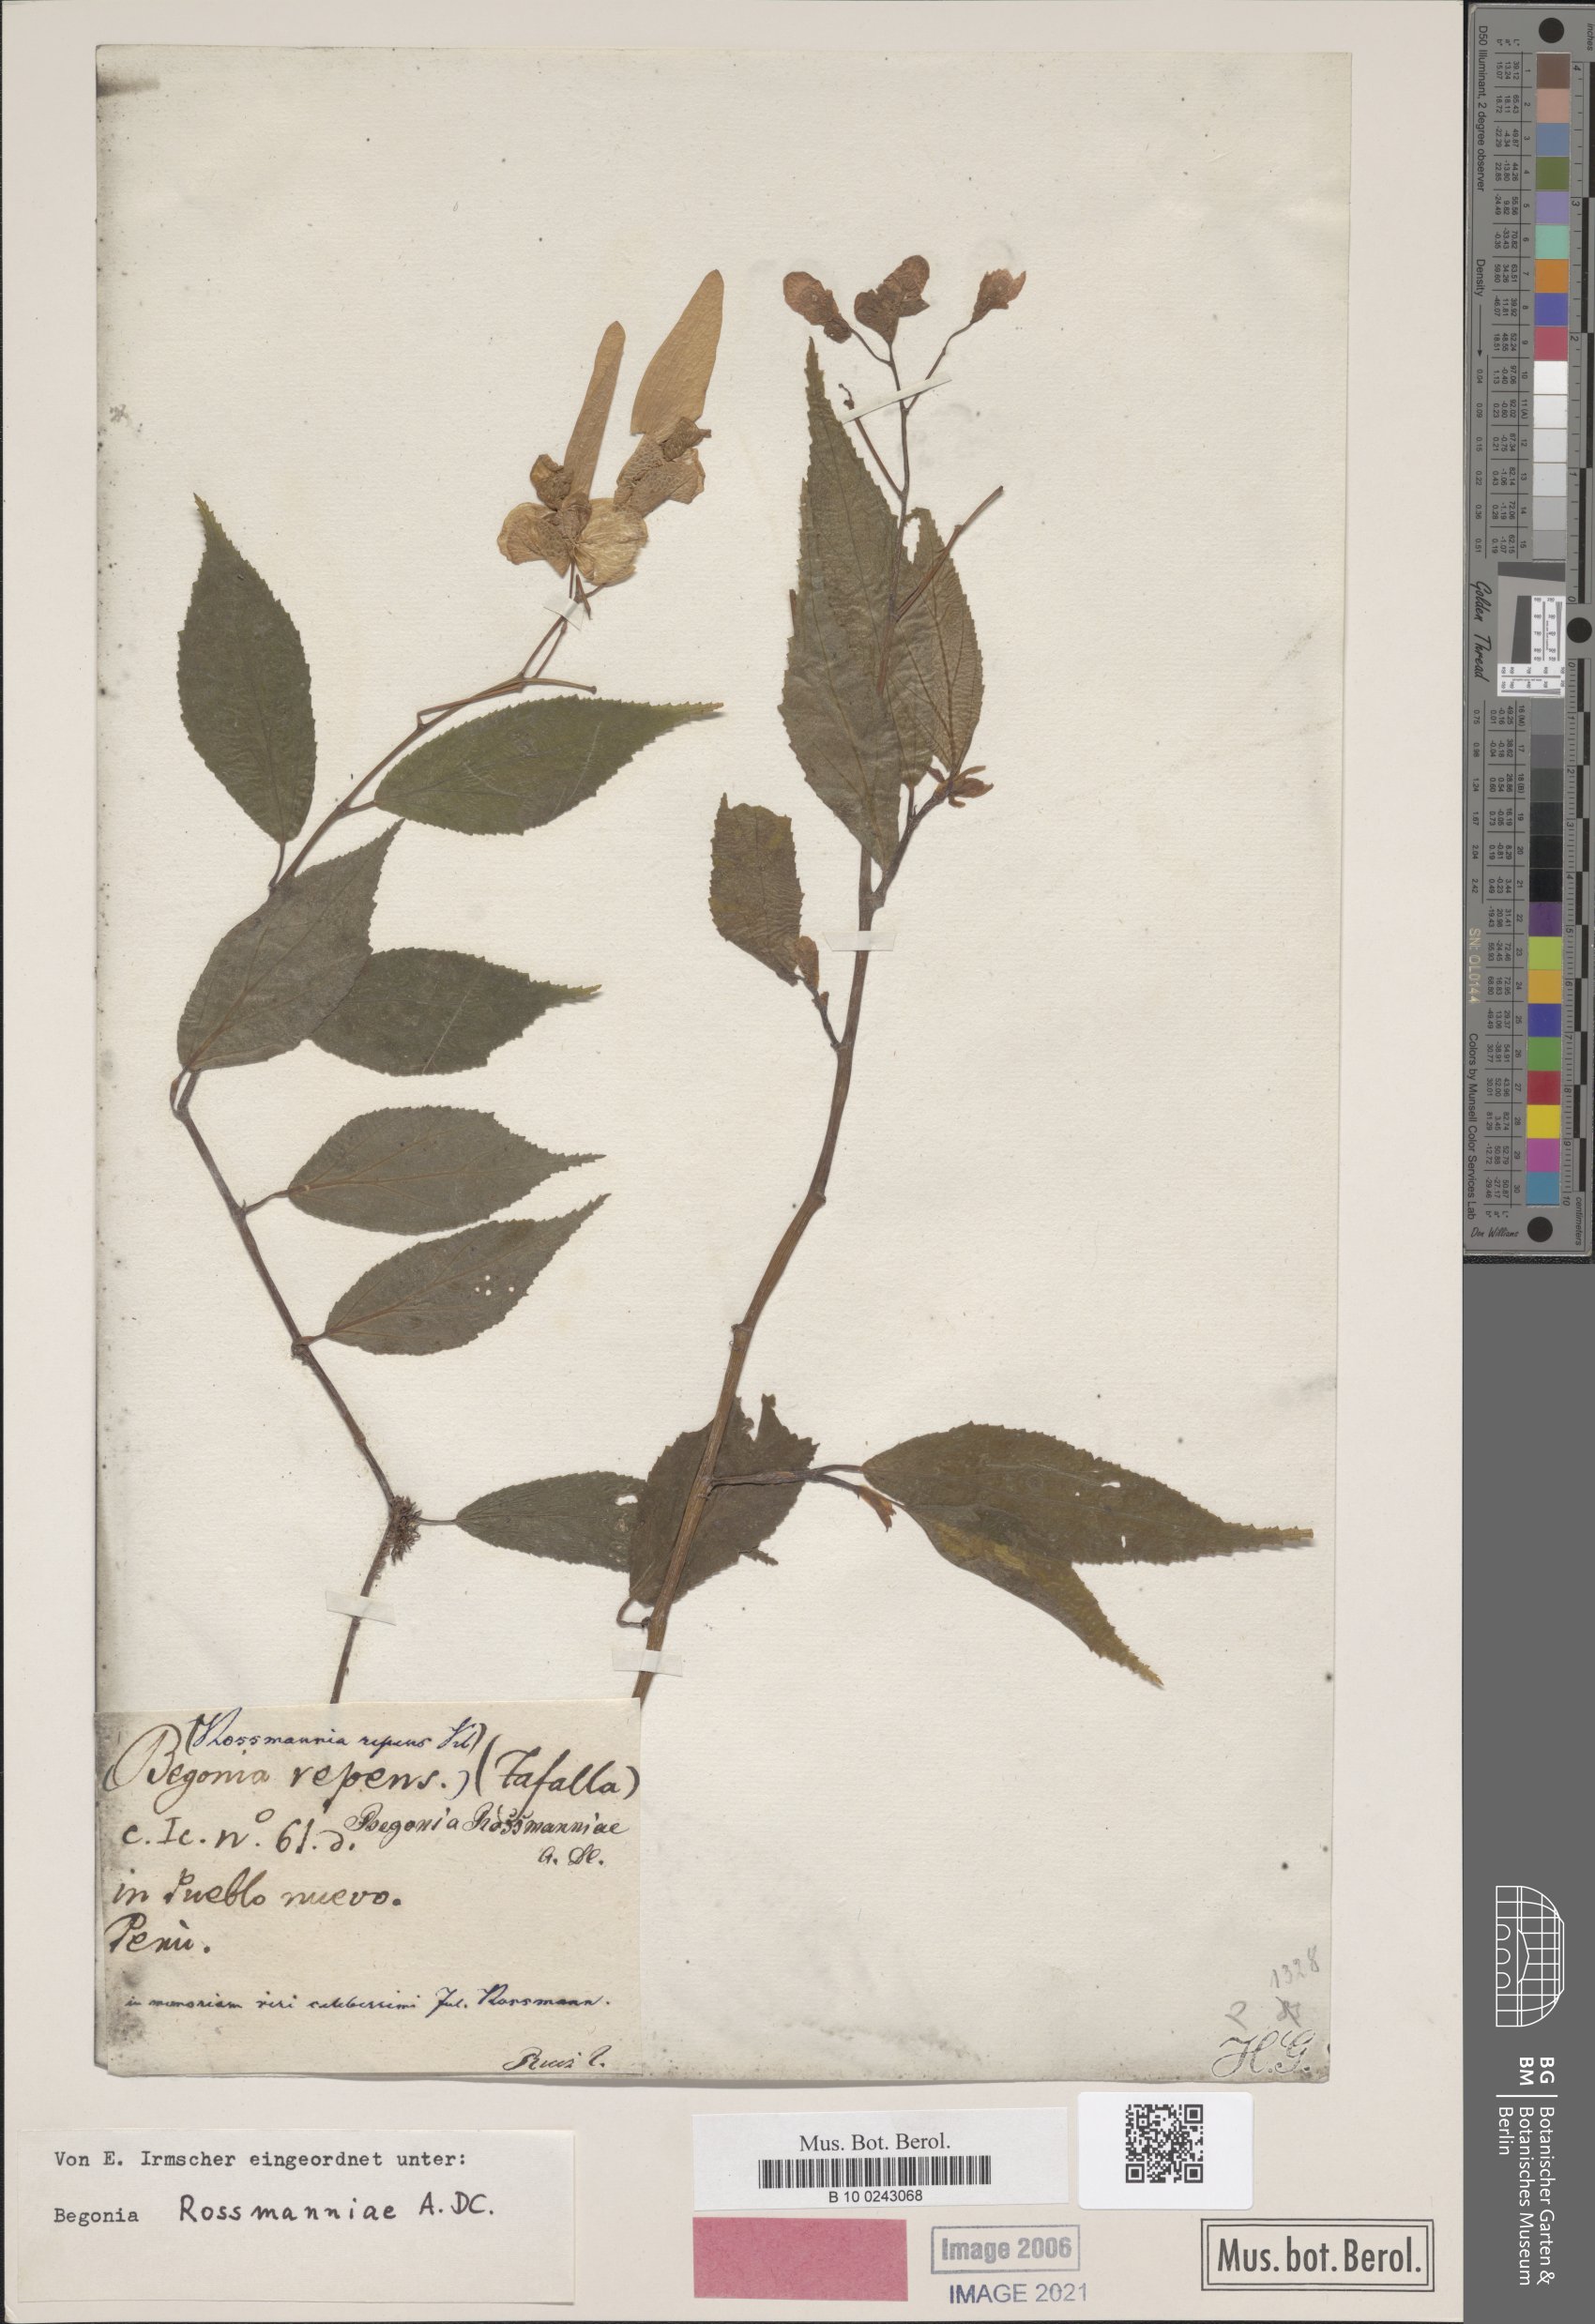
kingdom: Plantae
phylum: Tracheophyta
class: Magnoliopsida
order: Cucurbitales
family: Begoniaceae
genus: Begonia
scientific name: Begonia rossmanniae
